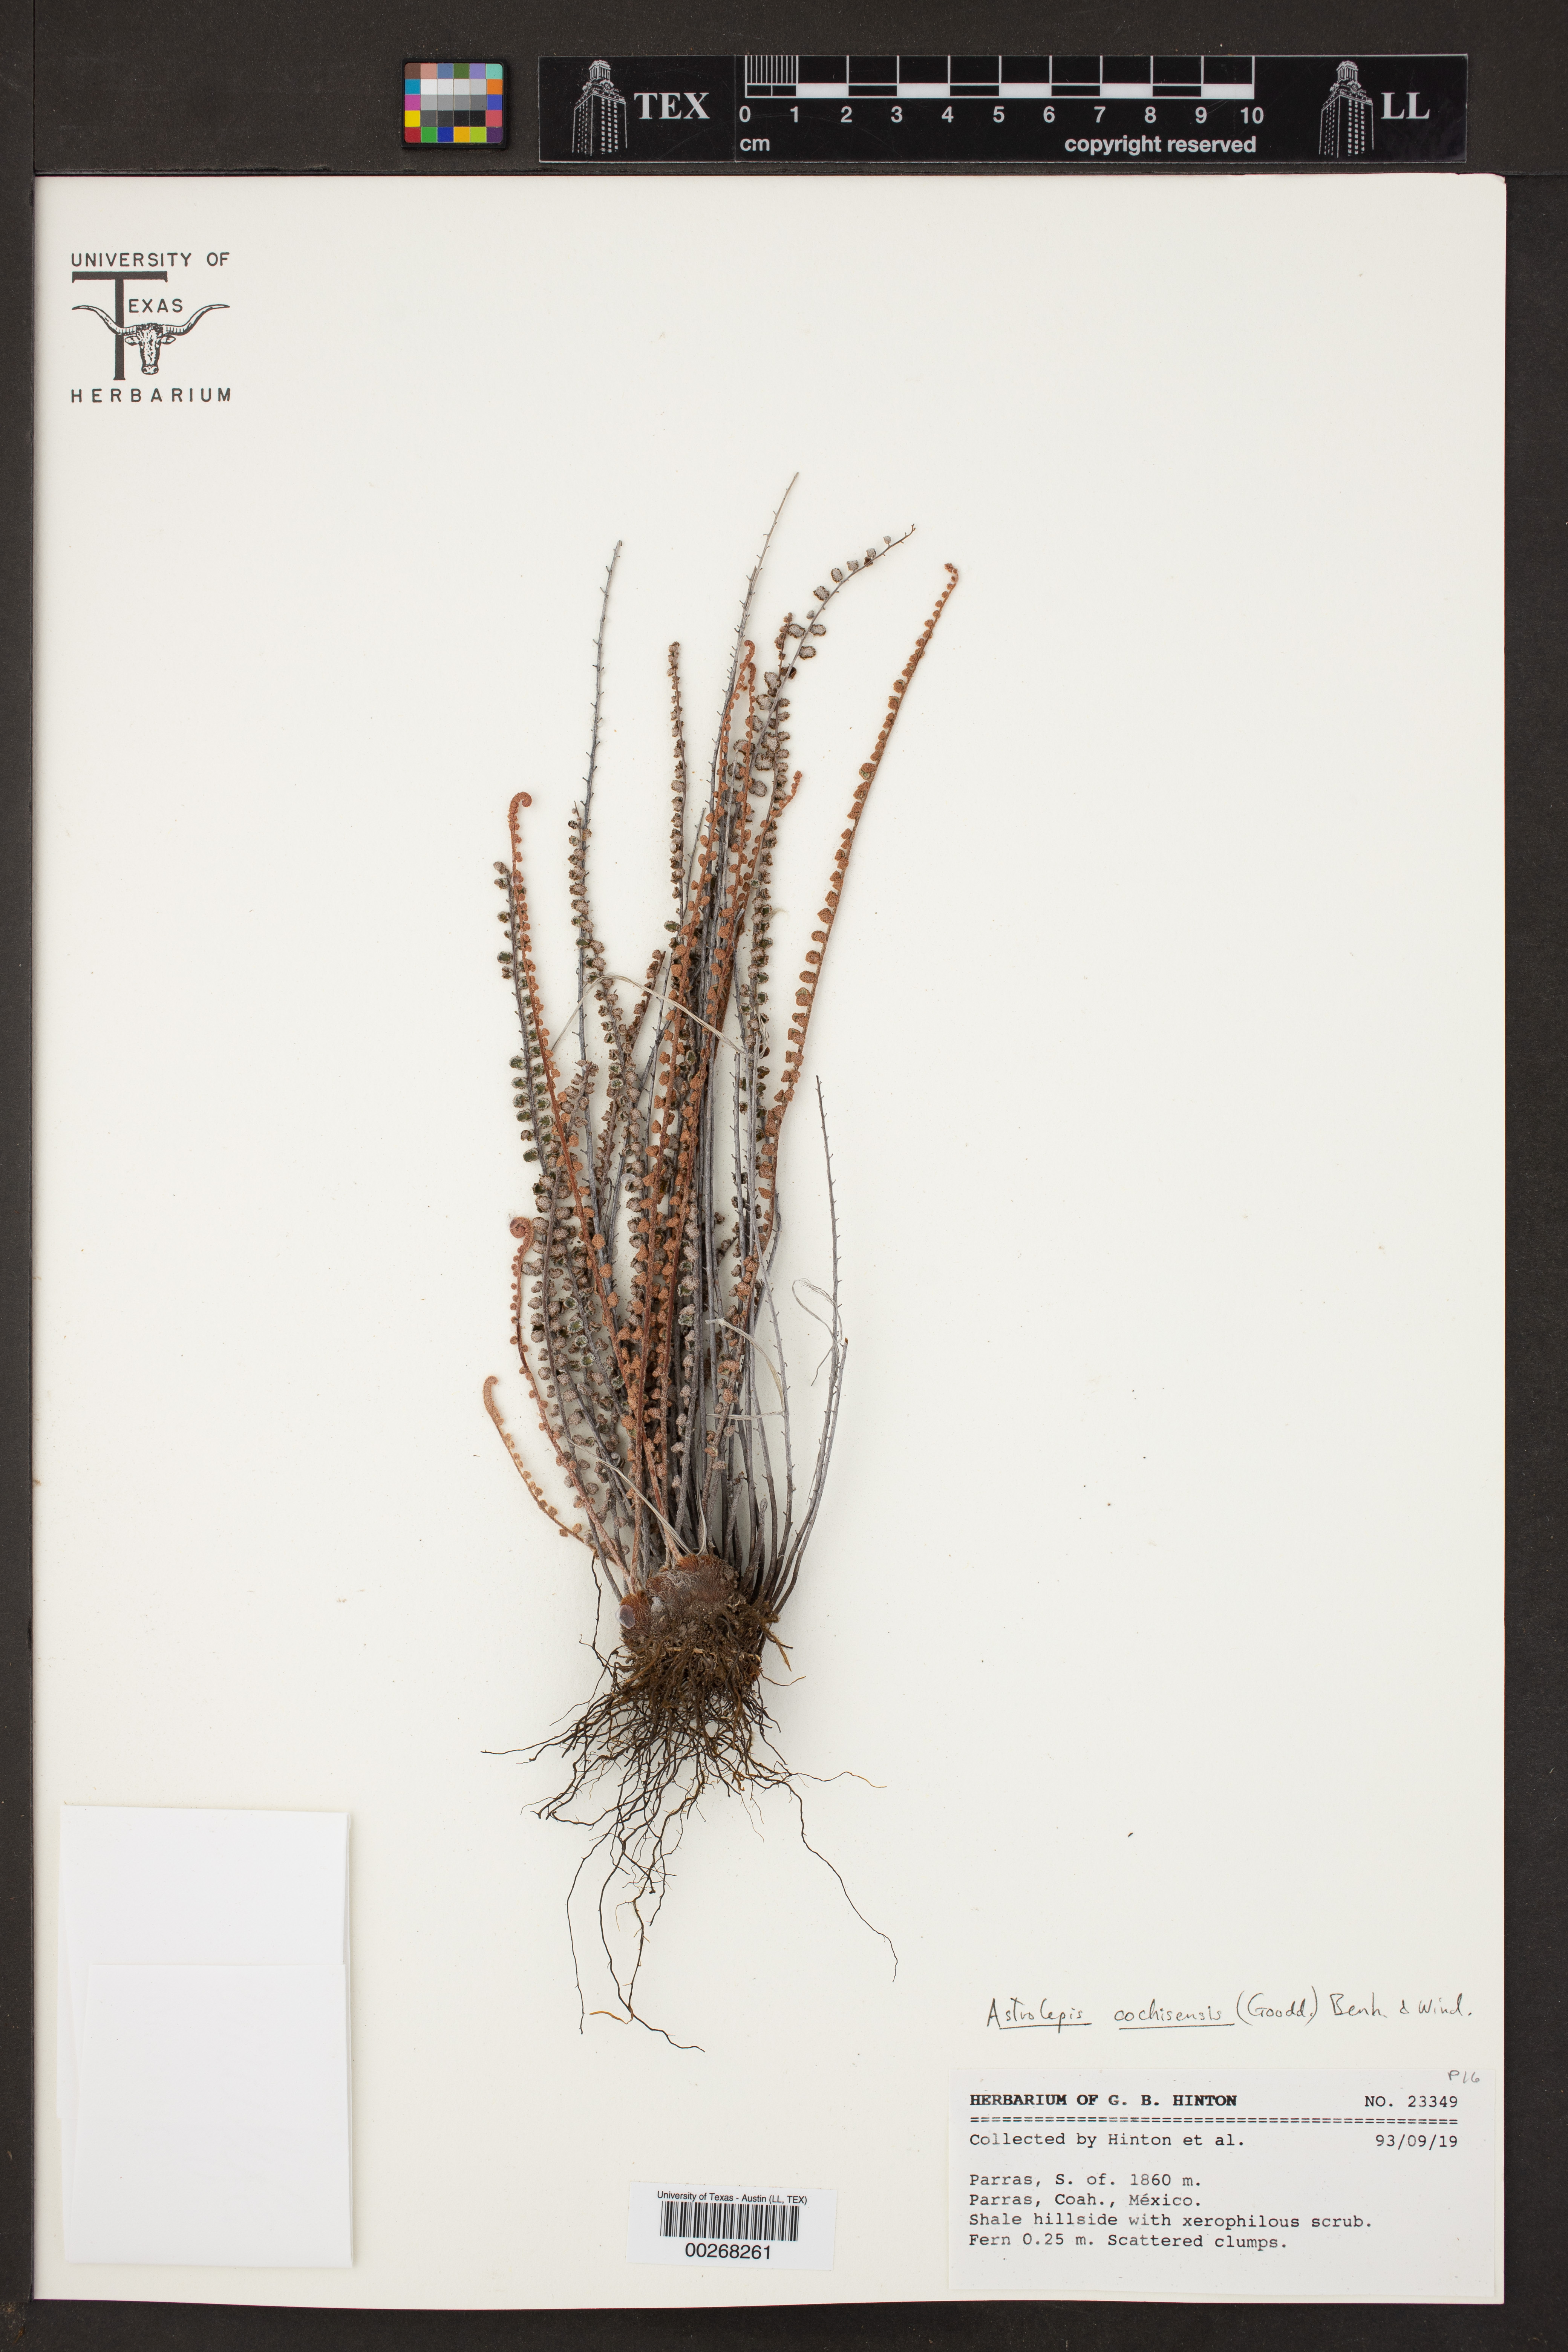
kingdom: Plantae
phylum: Tracheophyta
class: Polypodiopsida
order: Polypodiales
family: Pteridaceae
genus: Astrolepis
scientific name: Astrolepis cochisensis
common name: Scaly cloak fern
